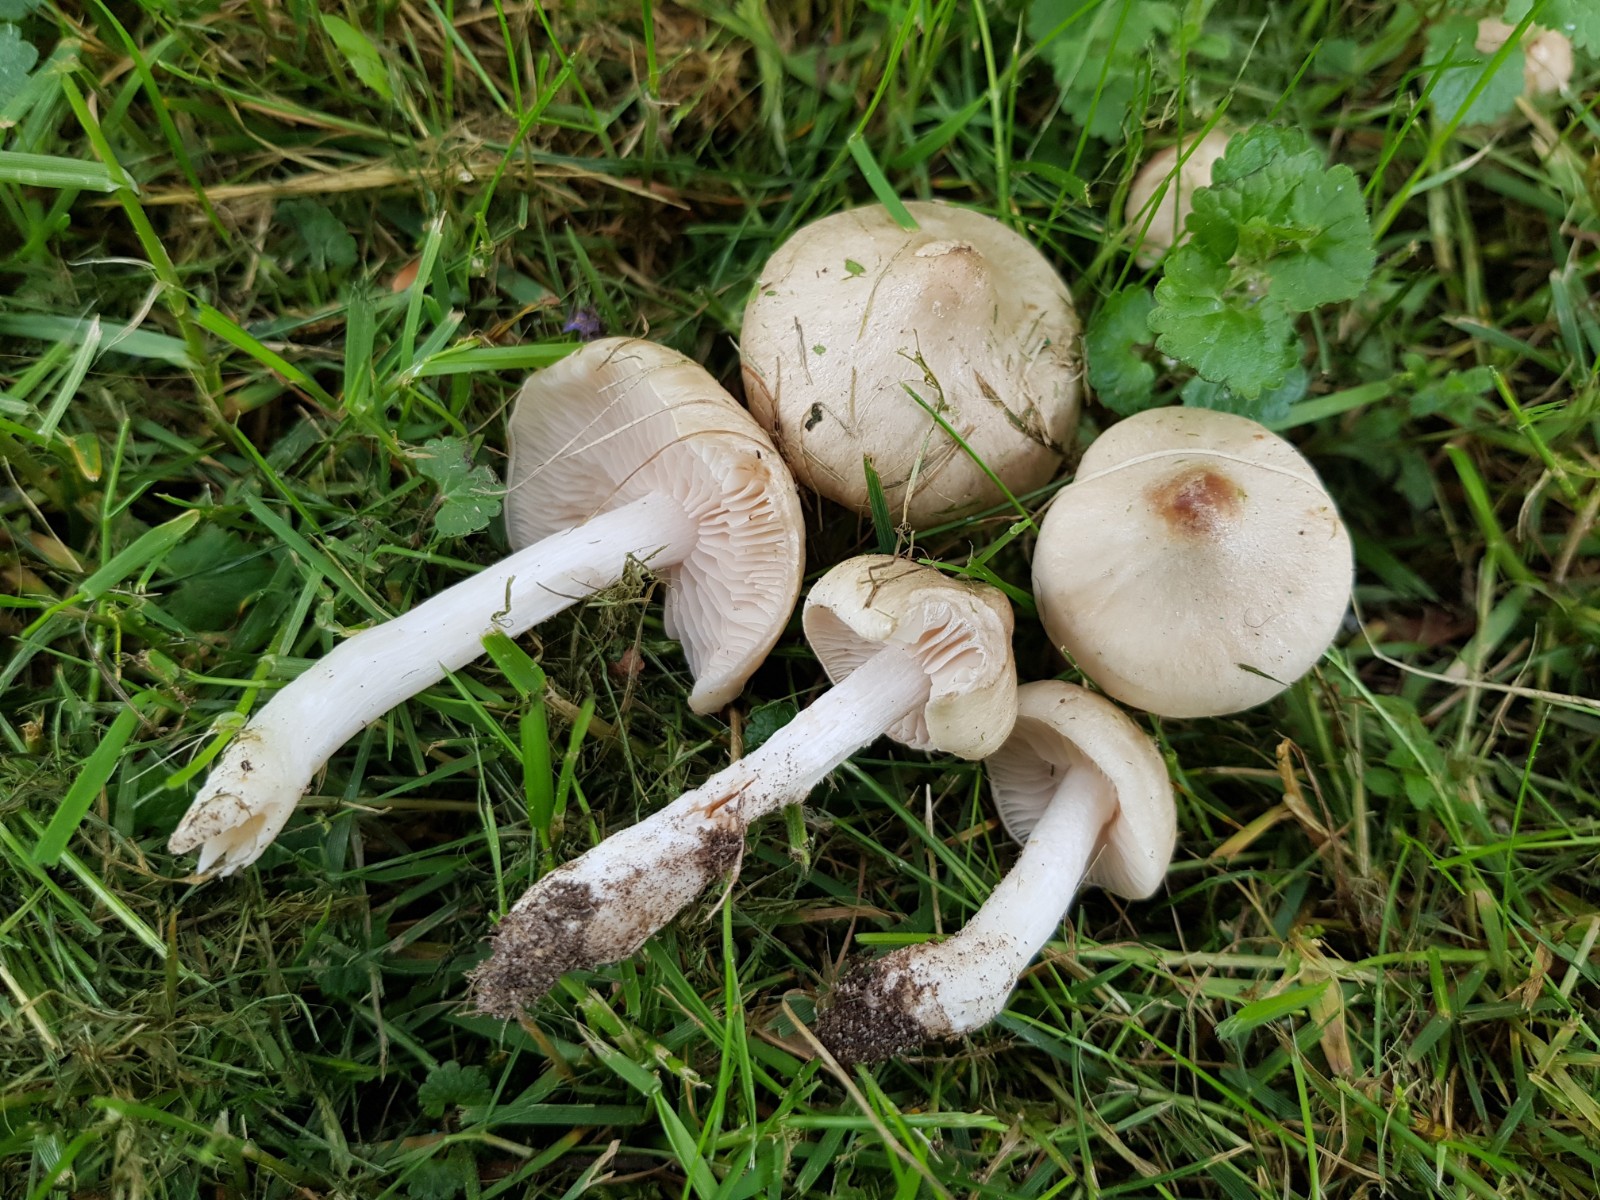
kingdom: Fungi
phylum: Basidiomycota
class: Agaricomycetes
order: Agaricales
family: Entolomataceae
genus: Entoloma
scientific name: Entoloma sepium
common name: slåen-rødblad
